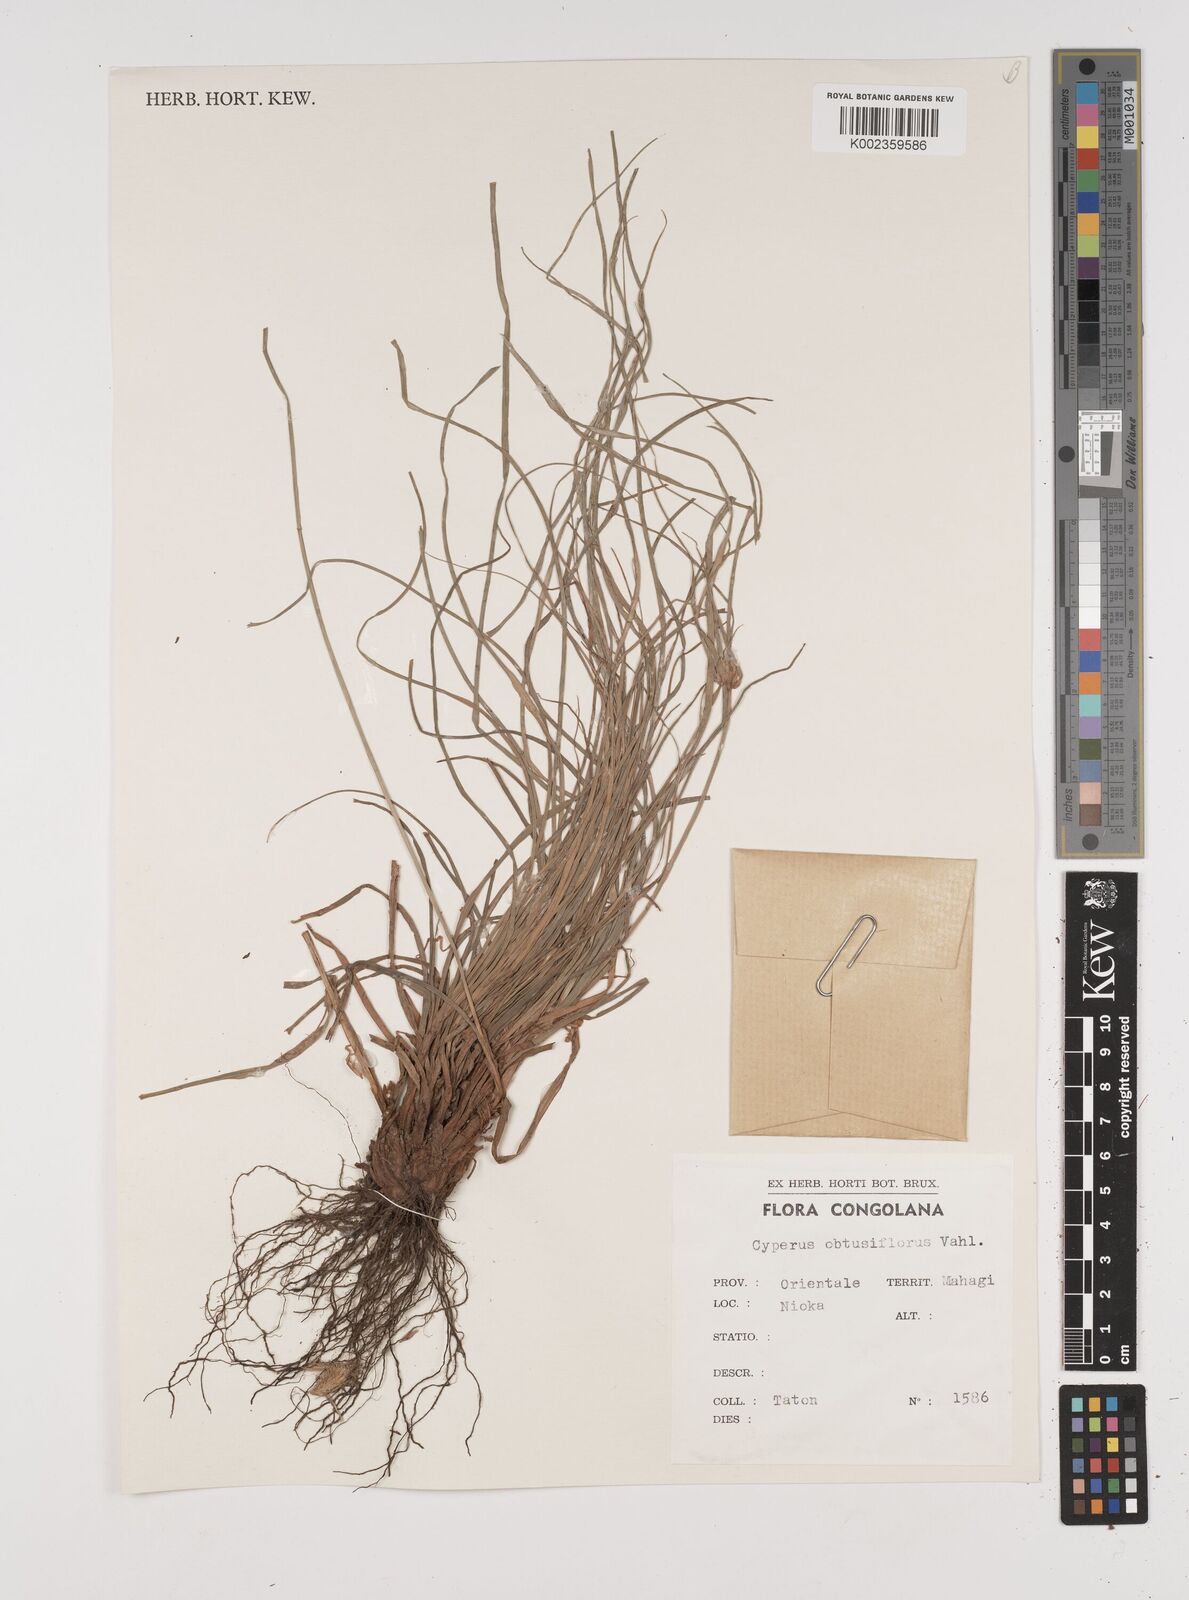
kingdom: Plantae
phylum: Tracheophyta
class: Liliopsida
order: Poales
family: Cyperaceae
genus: Cyperus
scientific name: Cyperus niveus
